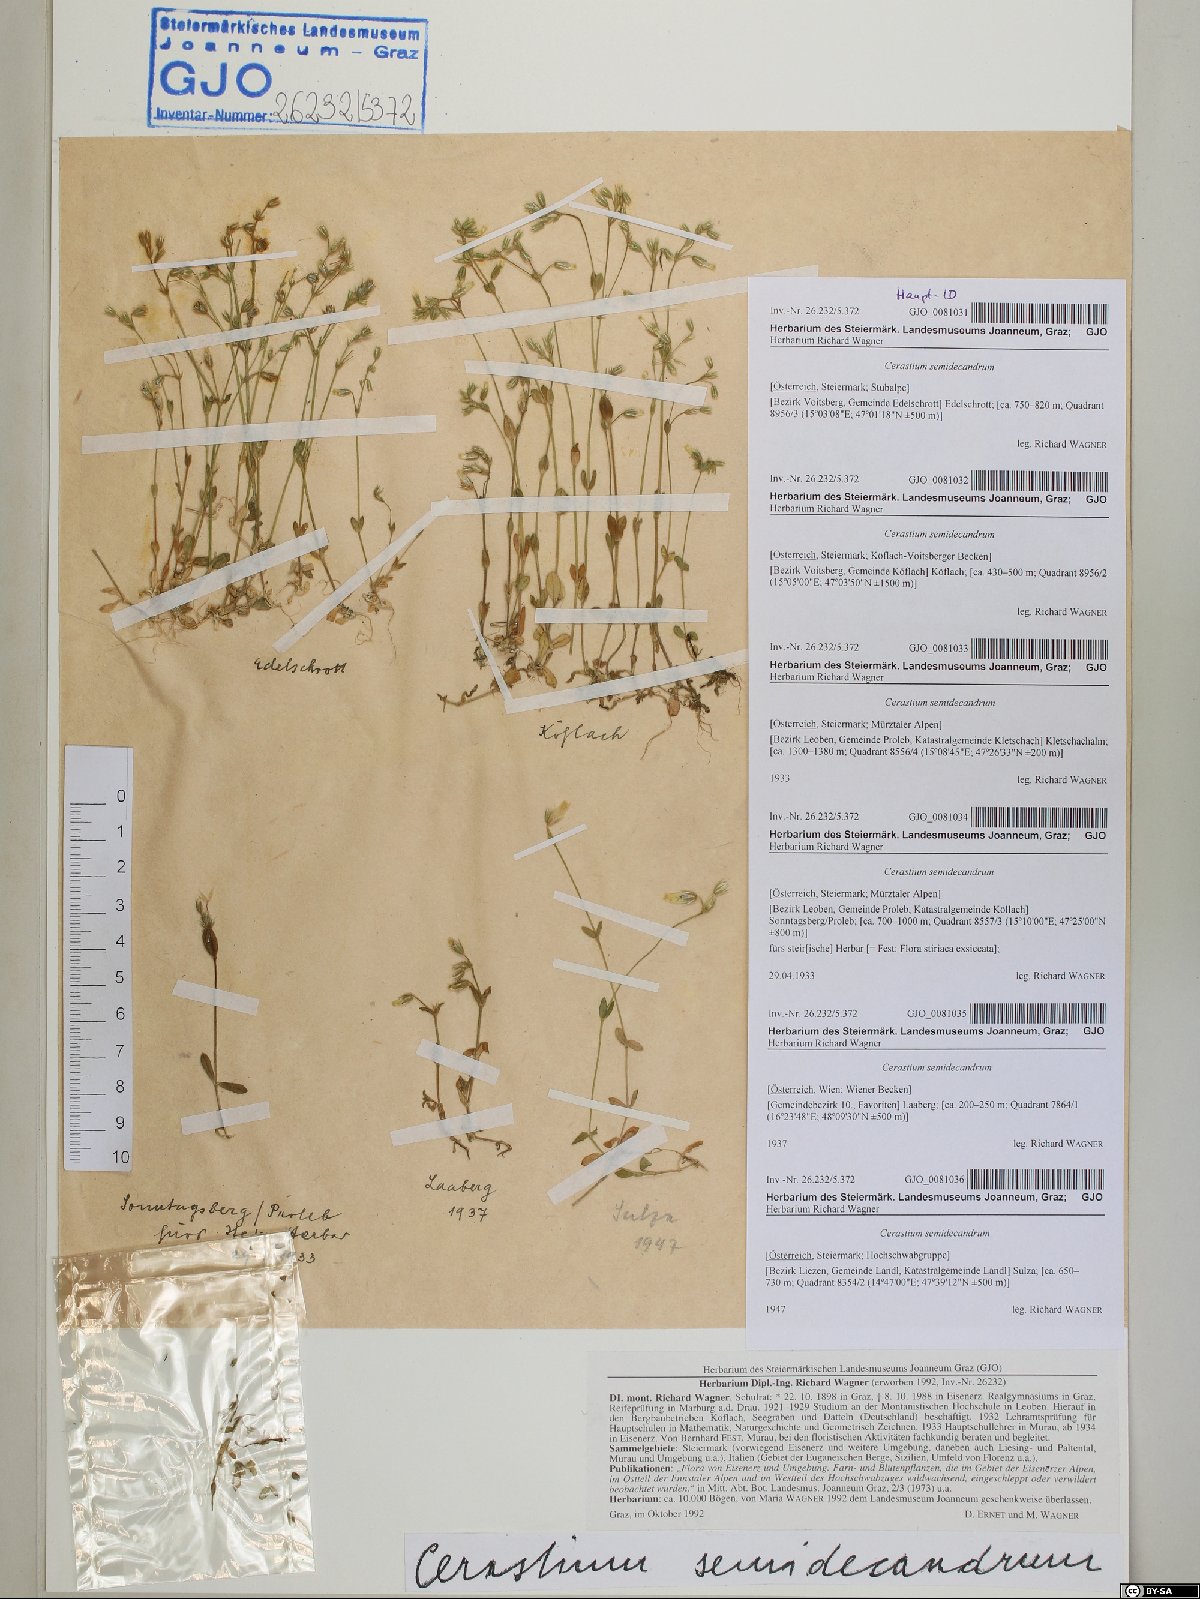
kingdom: Plantae
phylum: Tracheophyta
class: Magnoliopsida
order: Caryophyllales
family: Caryophyllaceae
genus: Cerastium
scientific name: Cerastium semidecandrum
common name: Little mouse-ear
